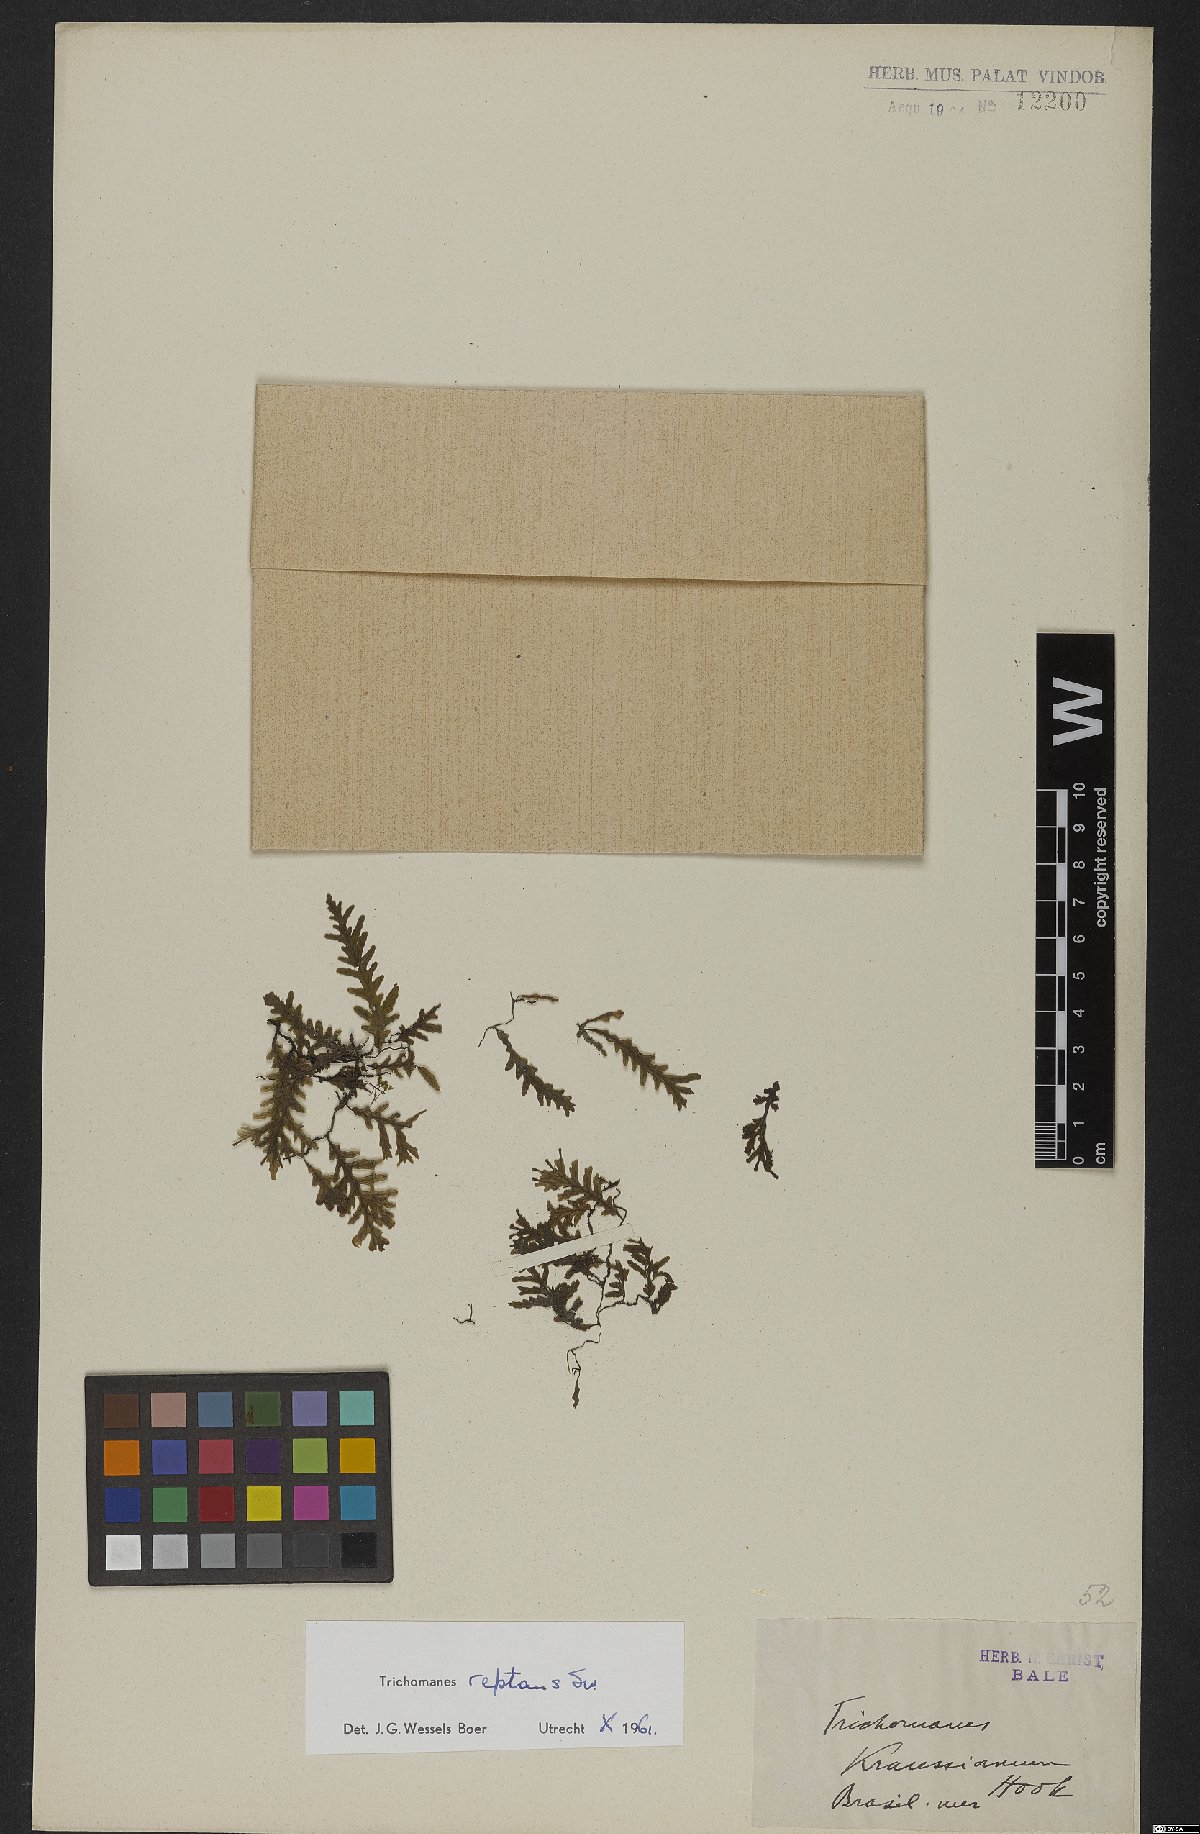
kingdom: Plantae
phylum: Tracheophyta
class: Polypodiopsida
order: Hymenophyllales
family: Hymenophyllaceae
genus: Didymoglossum
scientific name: Didymoglossum reptans
